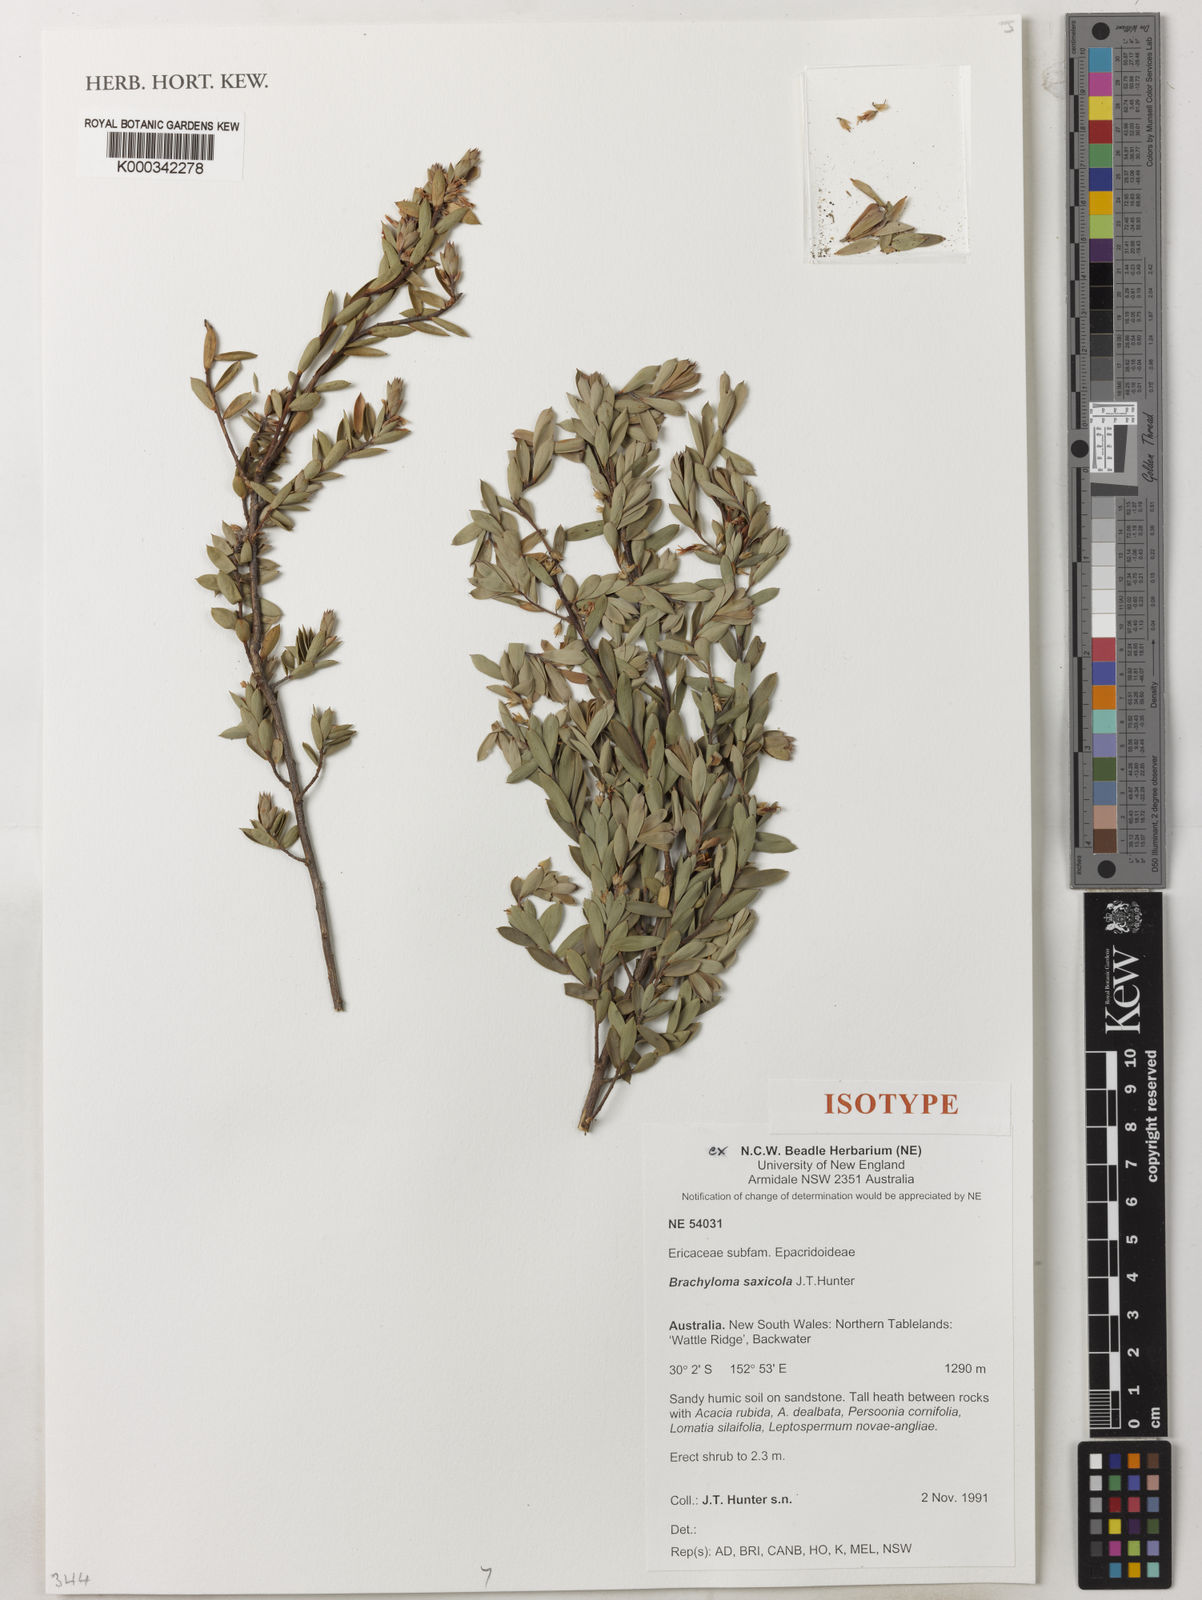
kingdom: Plantae
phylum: Tracheophyta
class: Magnoliopsida
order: Ericales
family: Ericaceae
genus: Brachyloma
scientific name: Brachyloma saxicola
